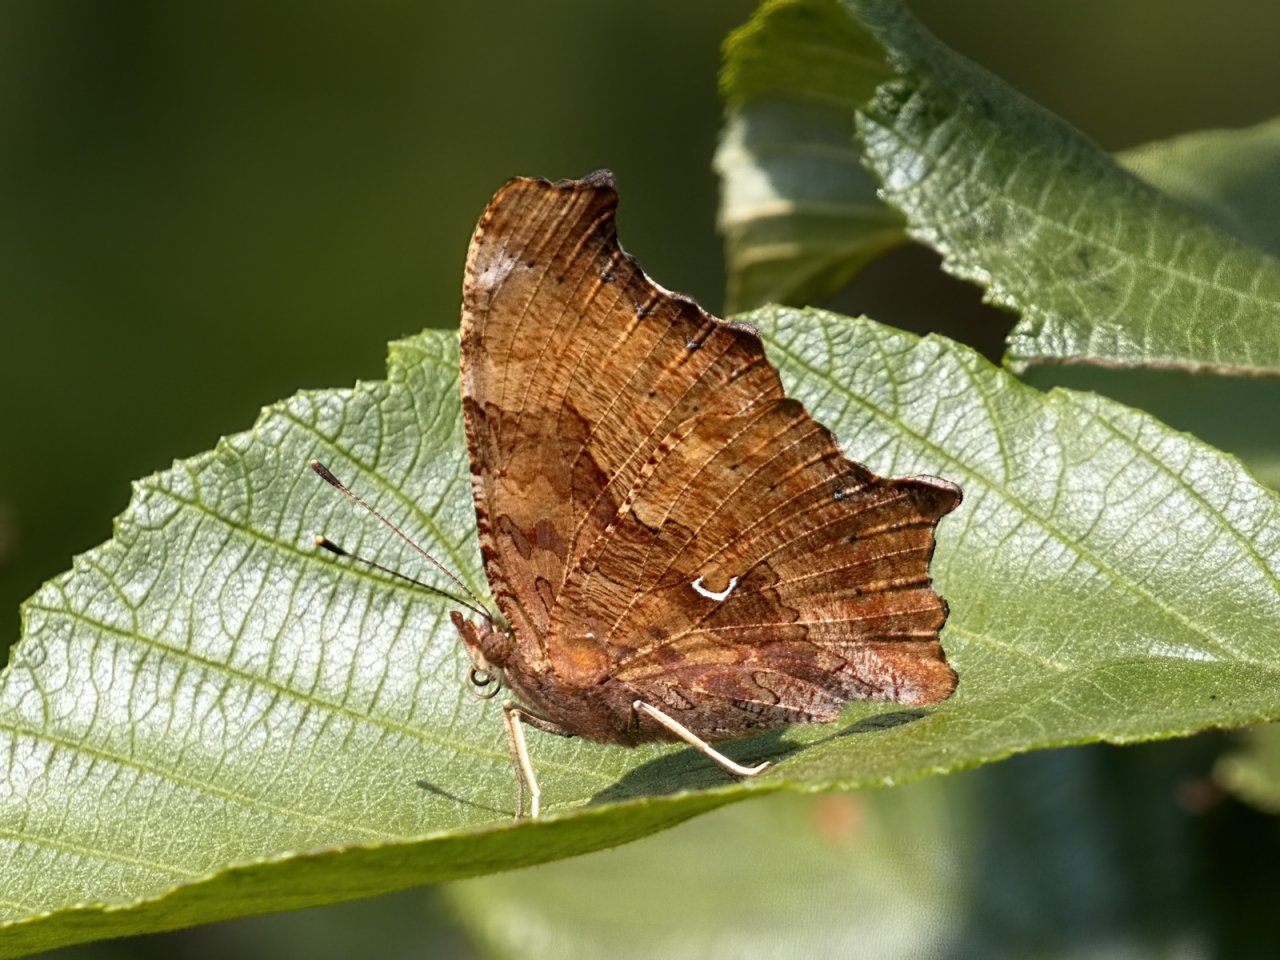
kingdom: Animalia
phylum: Arthropoda
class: Insecta
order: Lepidoptera
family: Nymphalidae
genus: Polygonia
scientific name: Polygonia comma
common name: Eastern Comma
